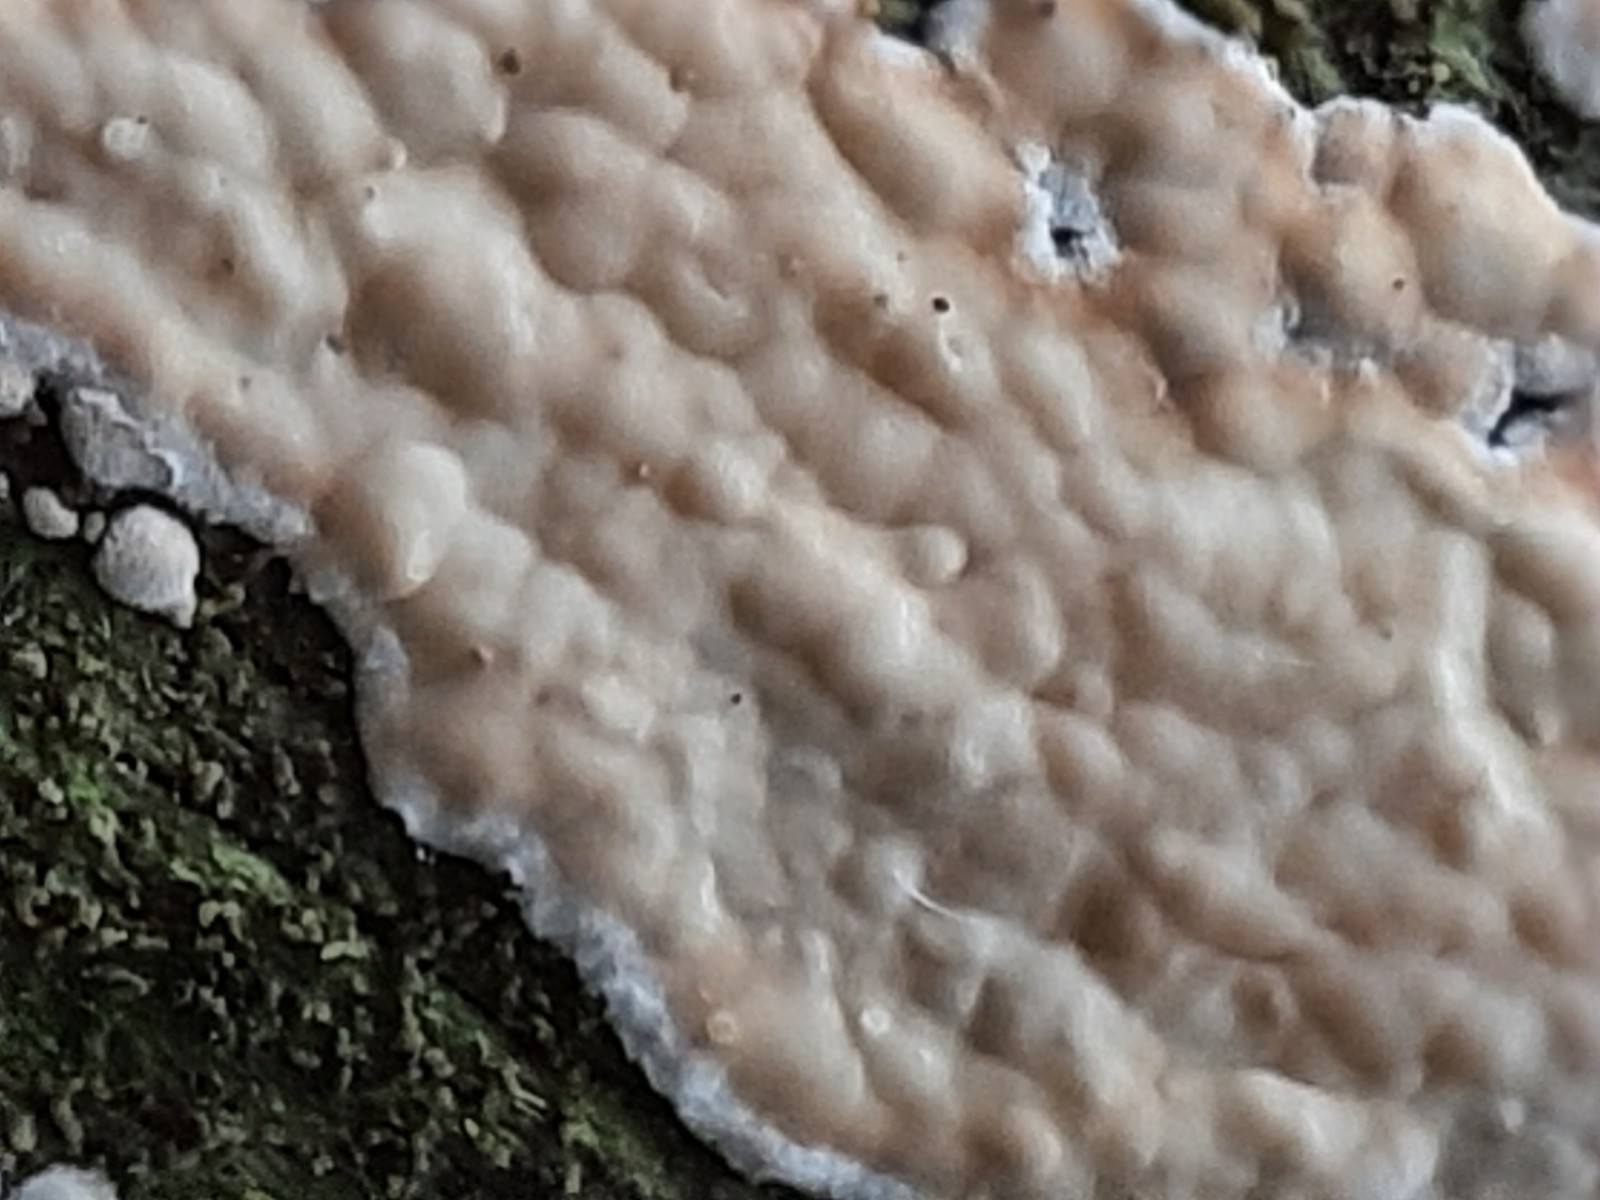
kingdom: Fungi
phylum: Basidiomycota
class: Agaricomycetes
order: Polyporales
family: Dacryobolaceae
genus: Dacryobolus
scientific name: Dacryobolus karstenii
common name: glat vulkanskorpe
